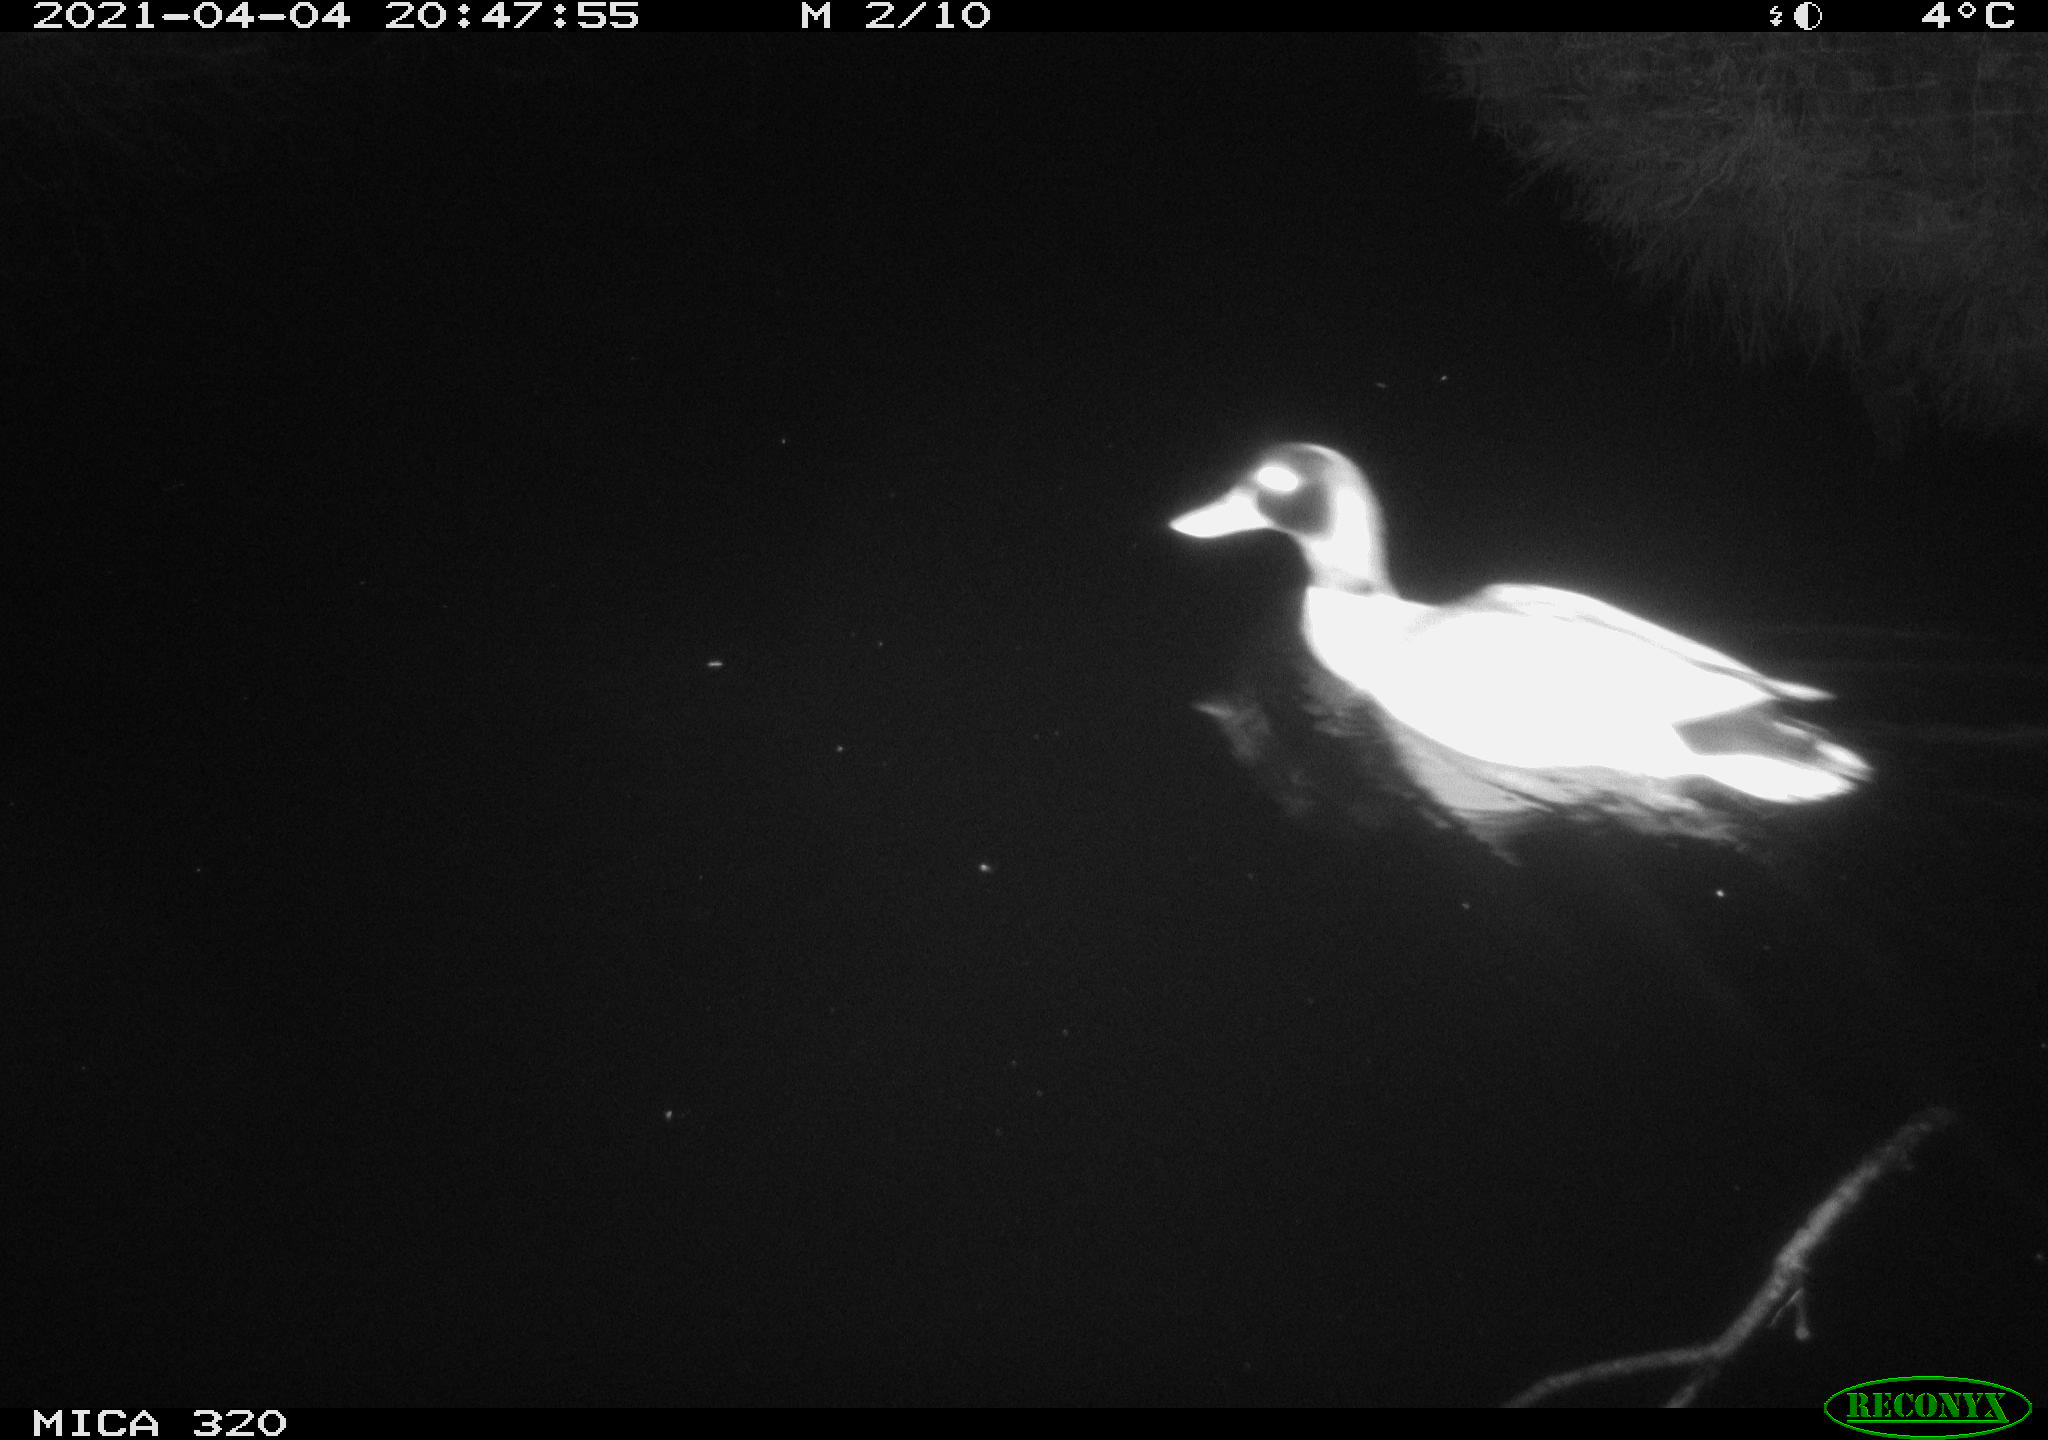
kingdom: Animalia
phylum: Chordata
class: Aves
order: Anseriformes
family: Anatidae
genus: Anas
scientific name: Anas platyrhynchos
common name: Mallard
